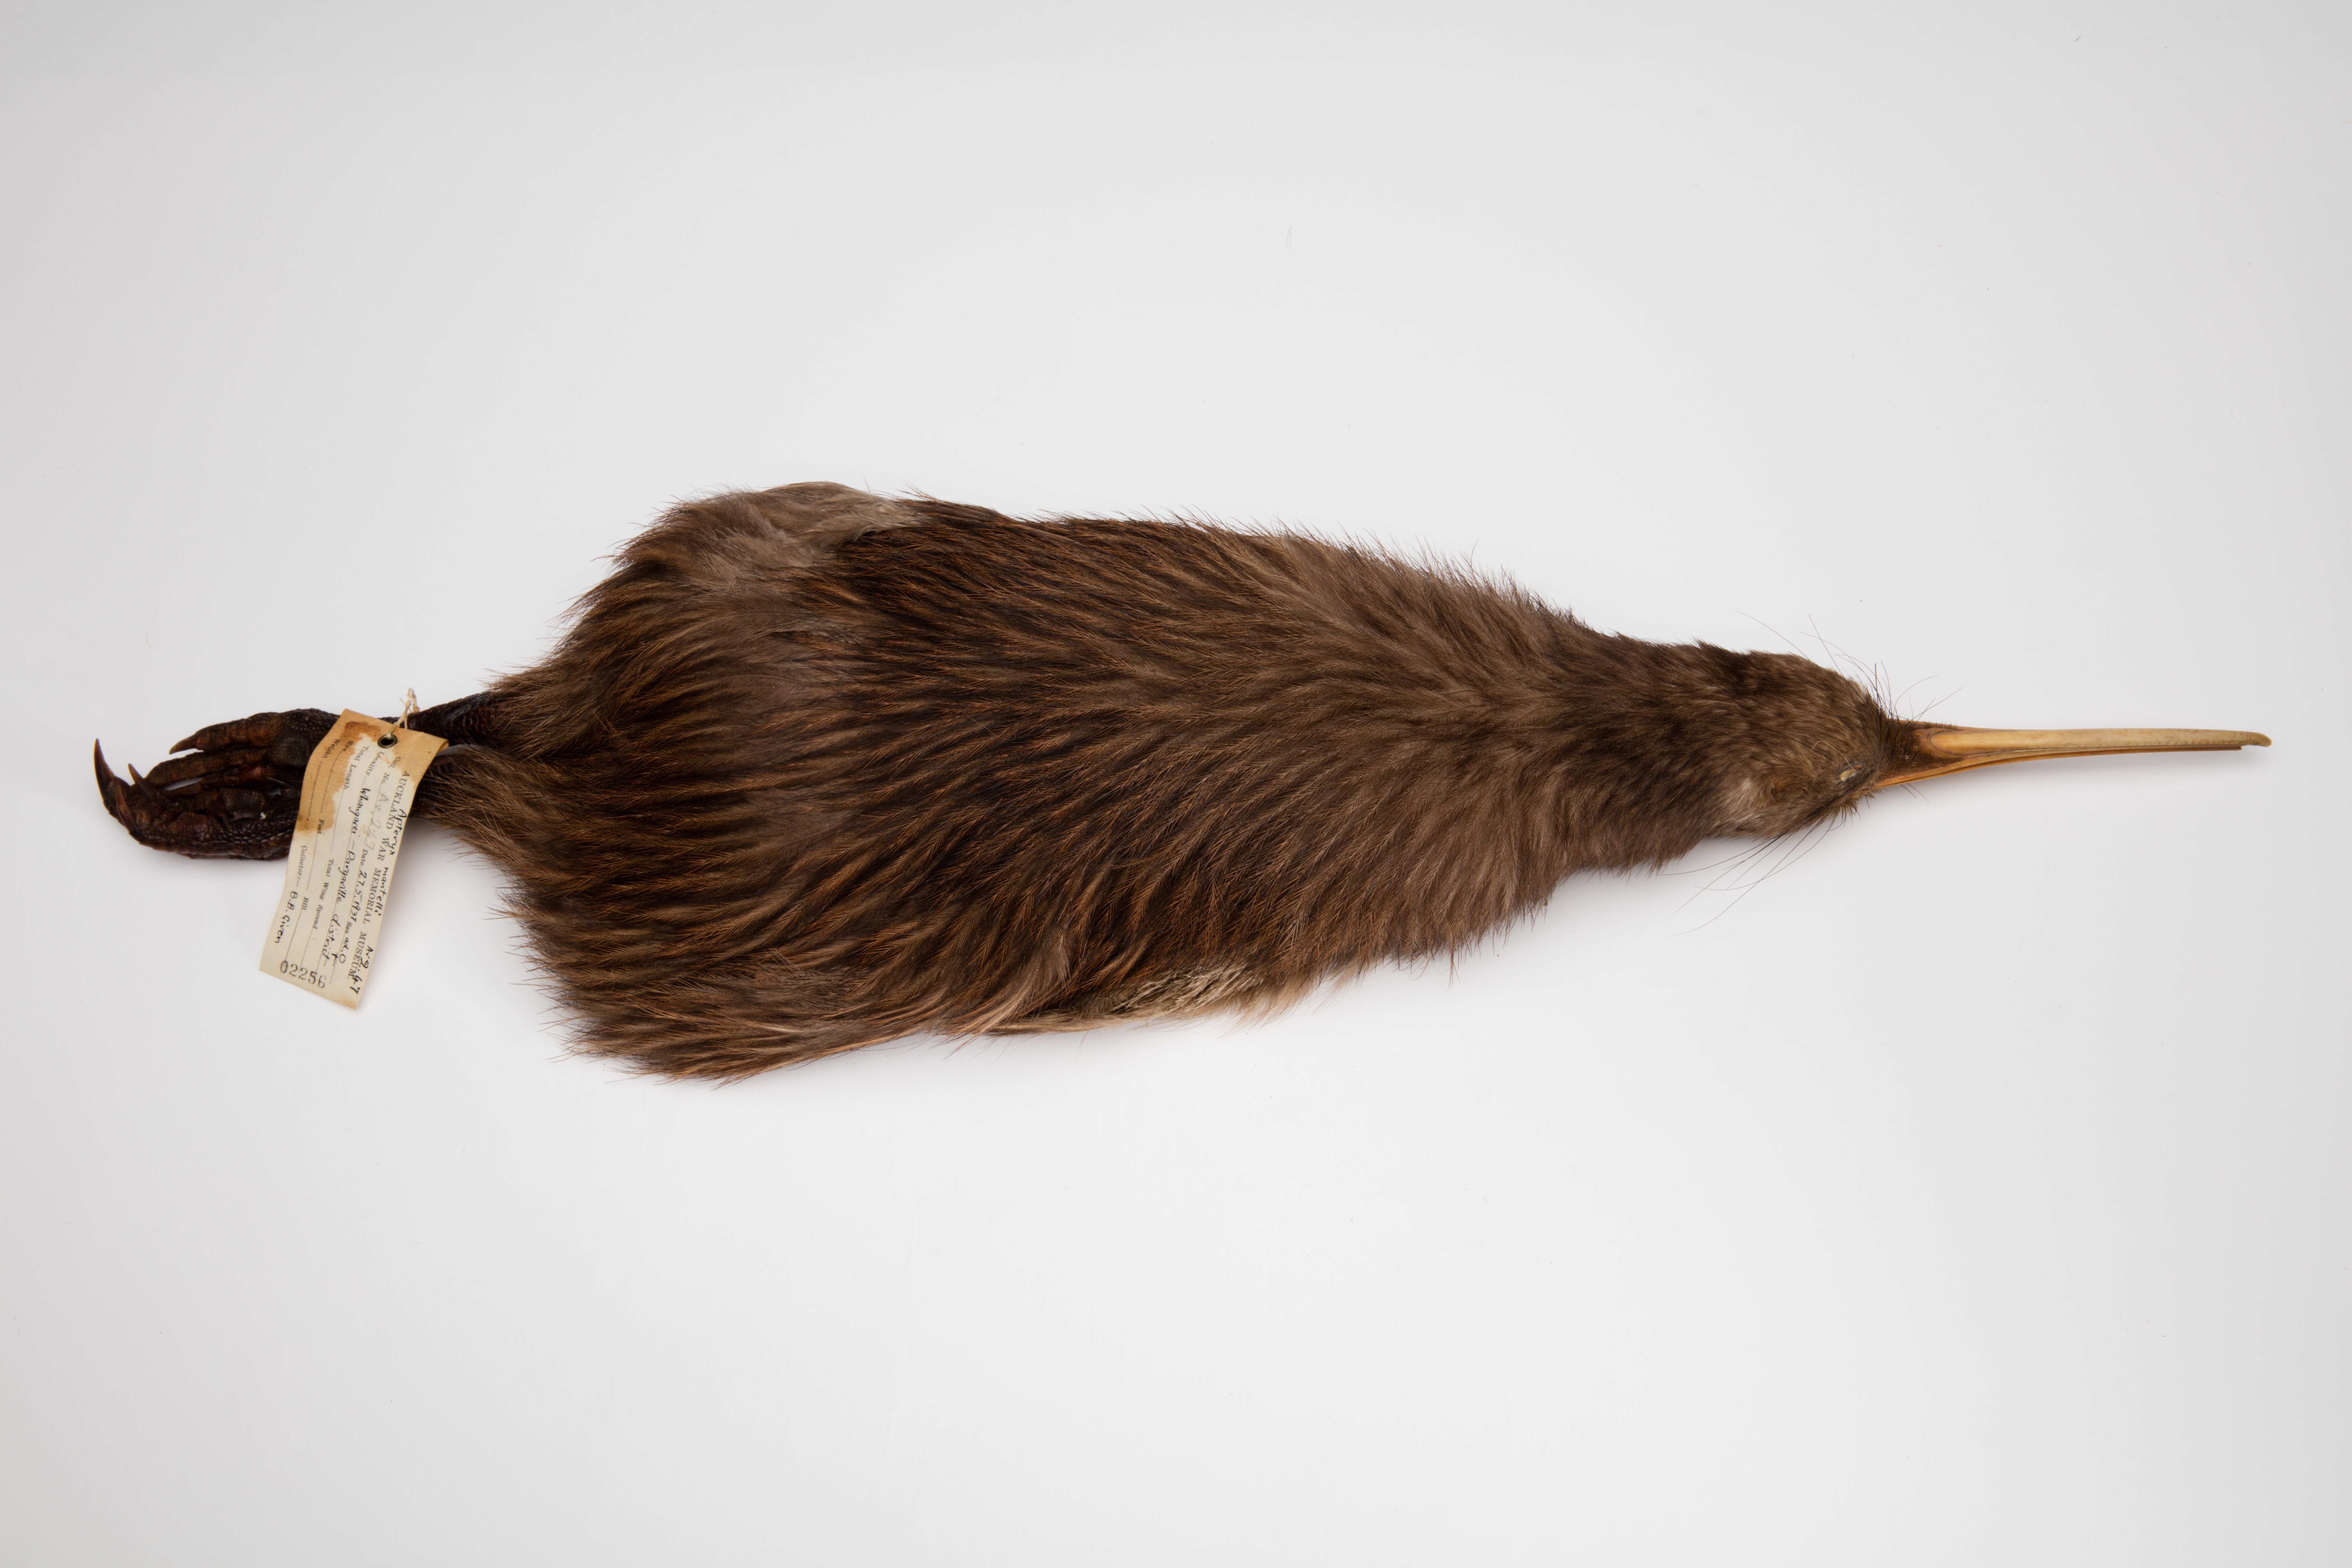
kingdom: Animalia
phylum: Chordata
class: Aves
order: Apterygiformes
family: Apterygidae
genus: Apteryx
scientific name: Apteryx mantelli
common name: North island brown kiwi
